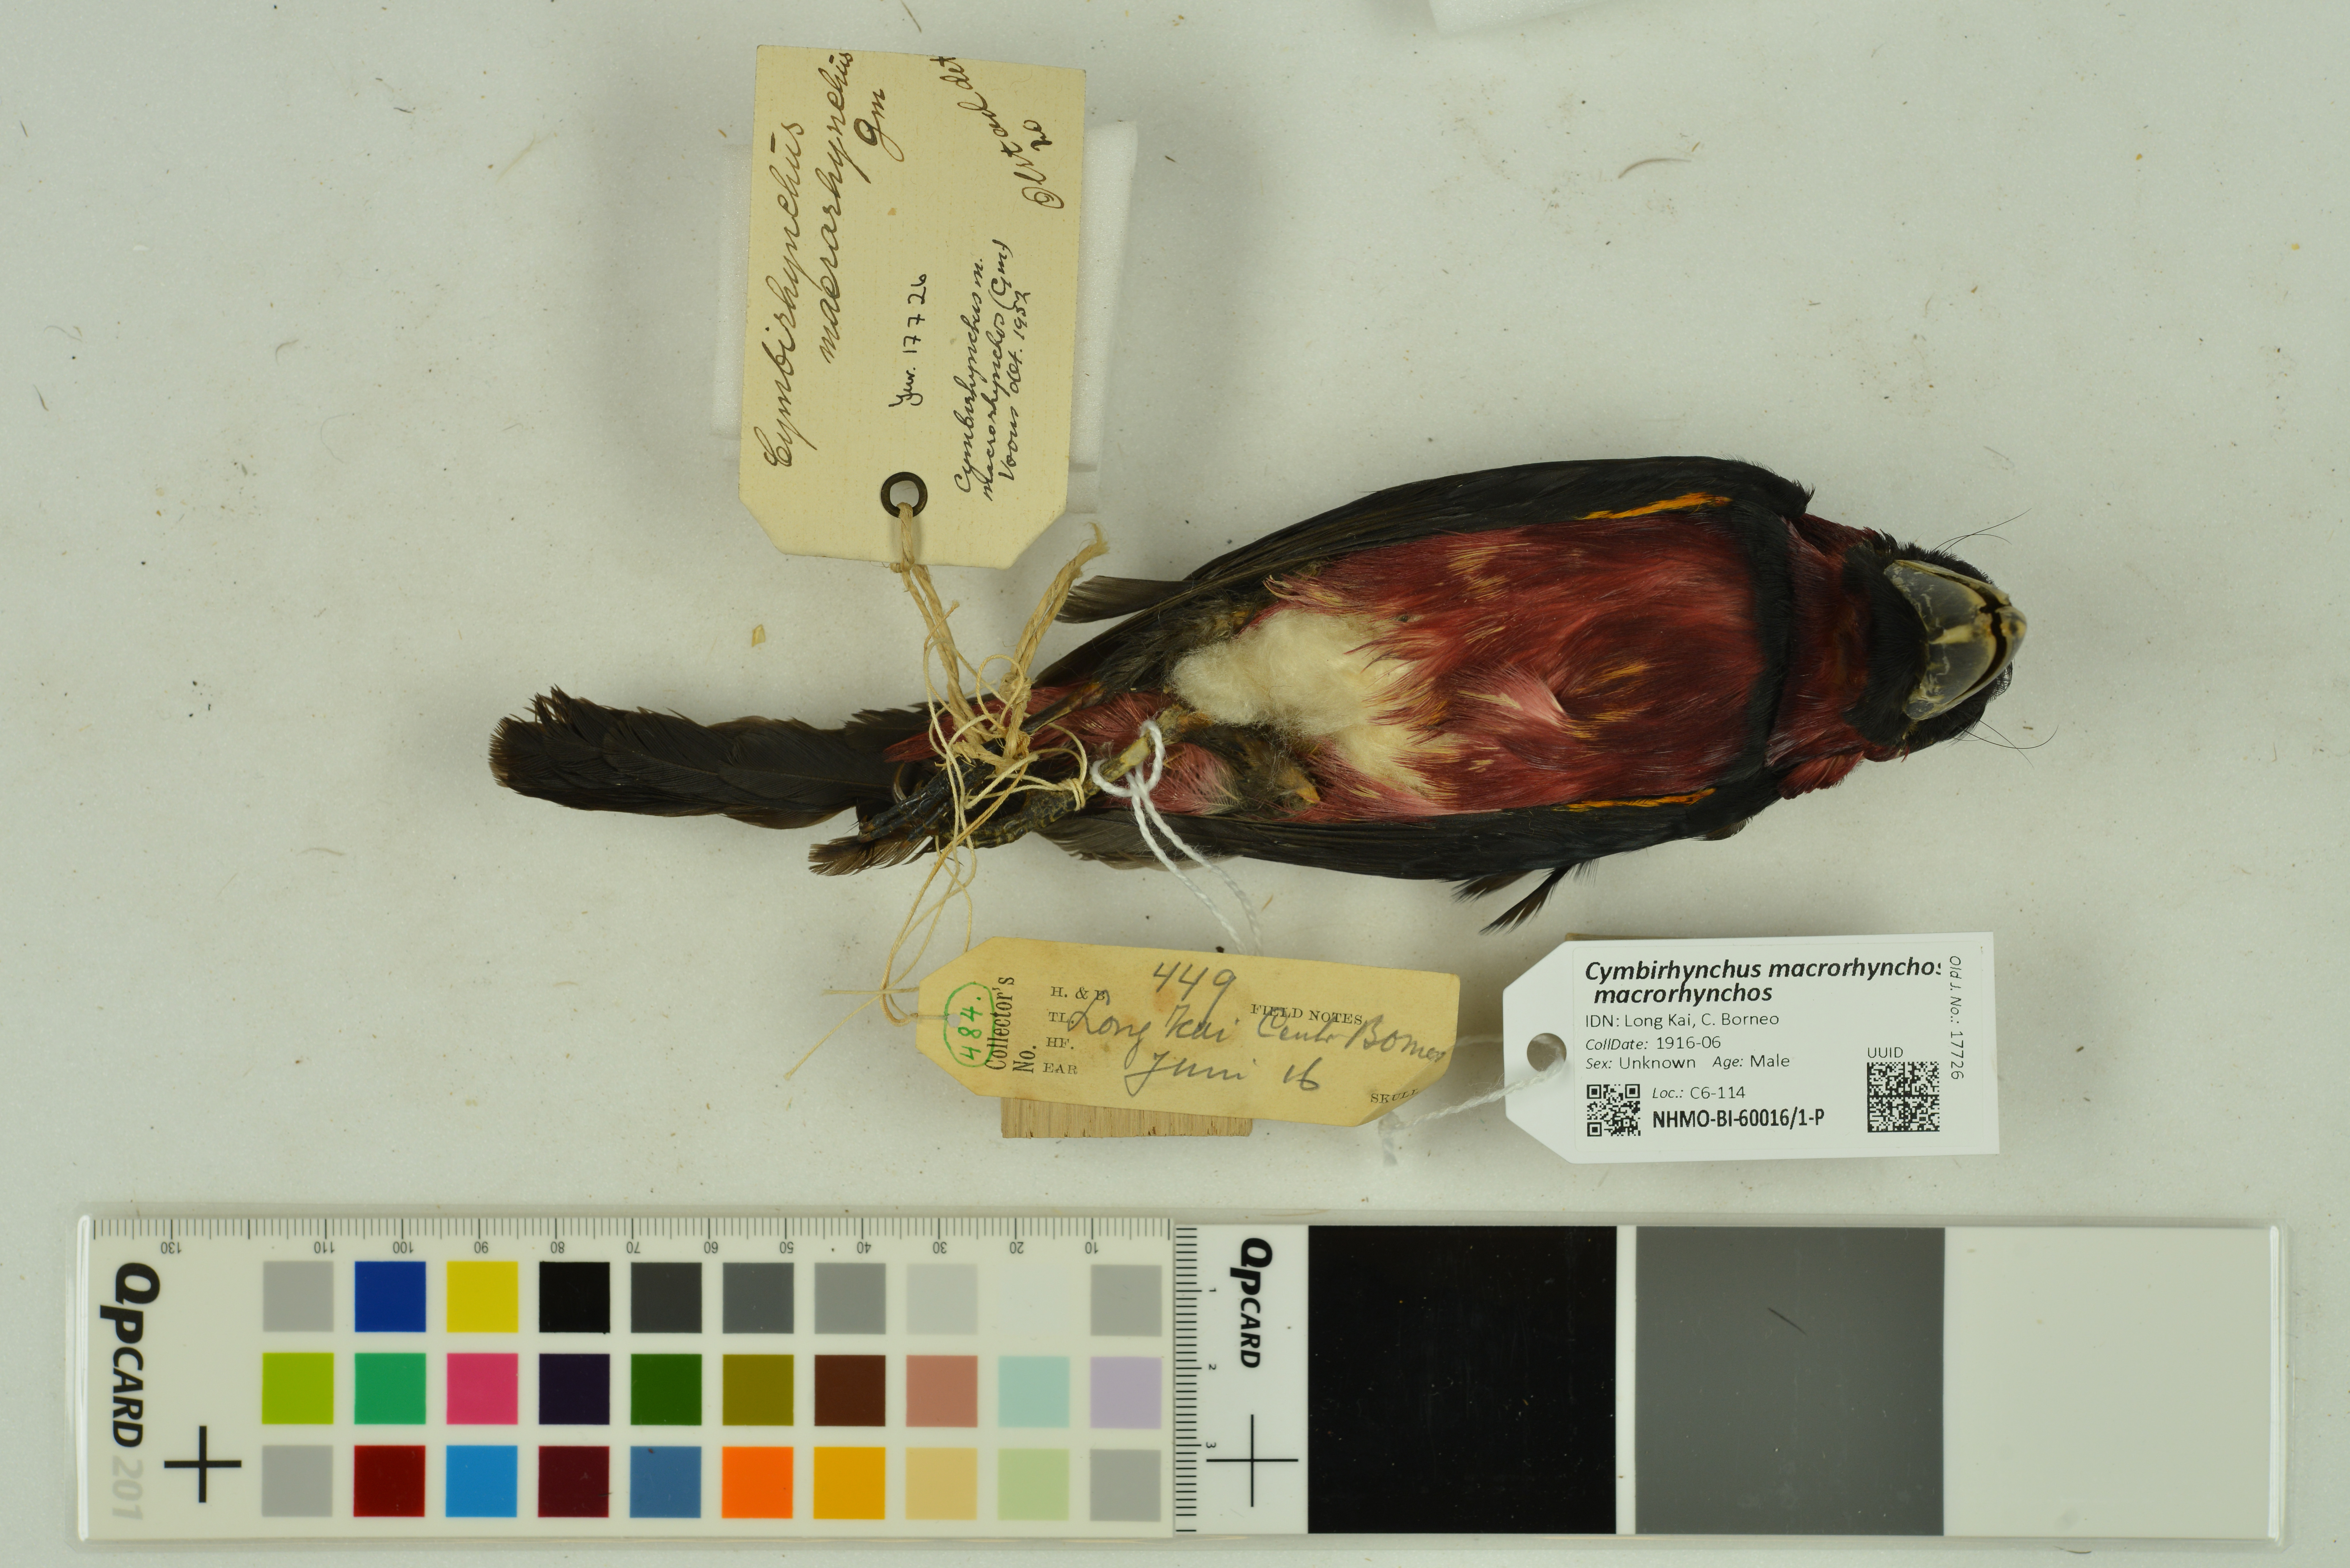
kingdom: Animalia
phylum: Chordata
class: Aves
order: Passeriformes
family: Eurylaimidae
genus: Cymbirhynchus
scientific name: Cymbirhynchus macrorhynchos
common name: Black-and-red broadbill
